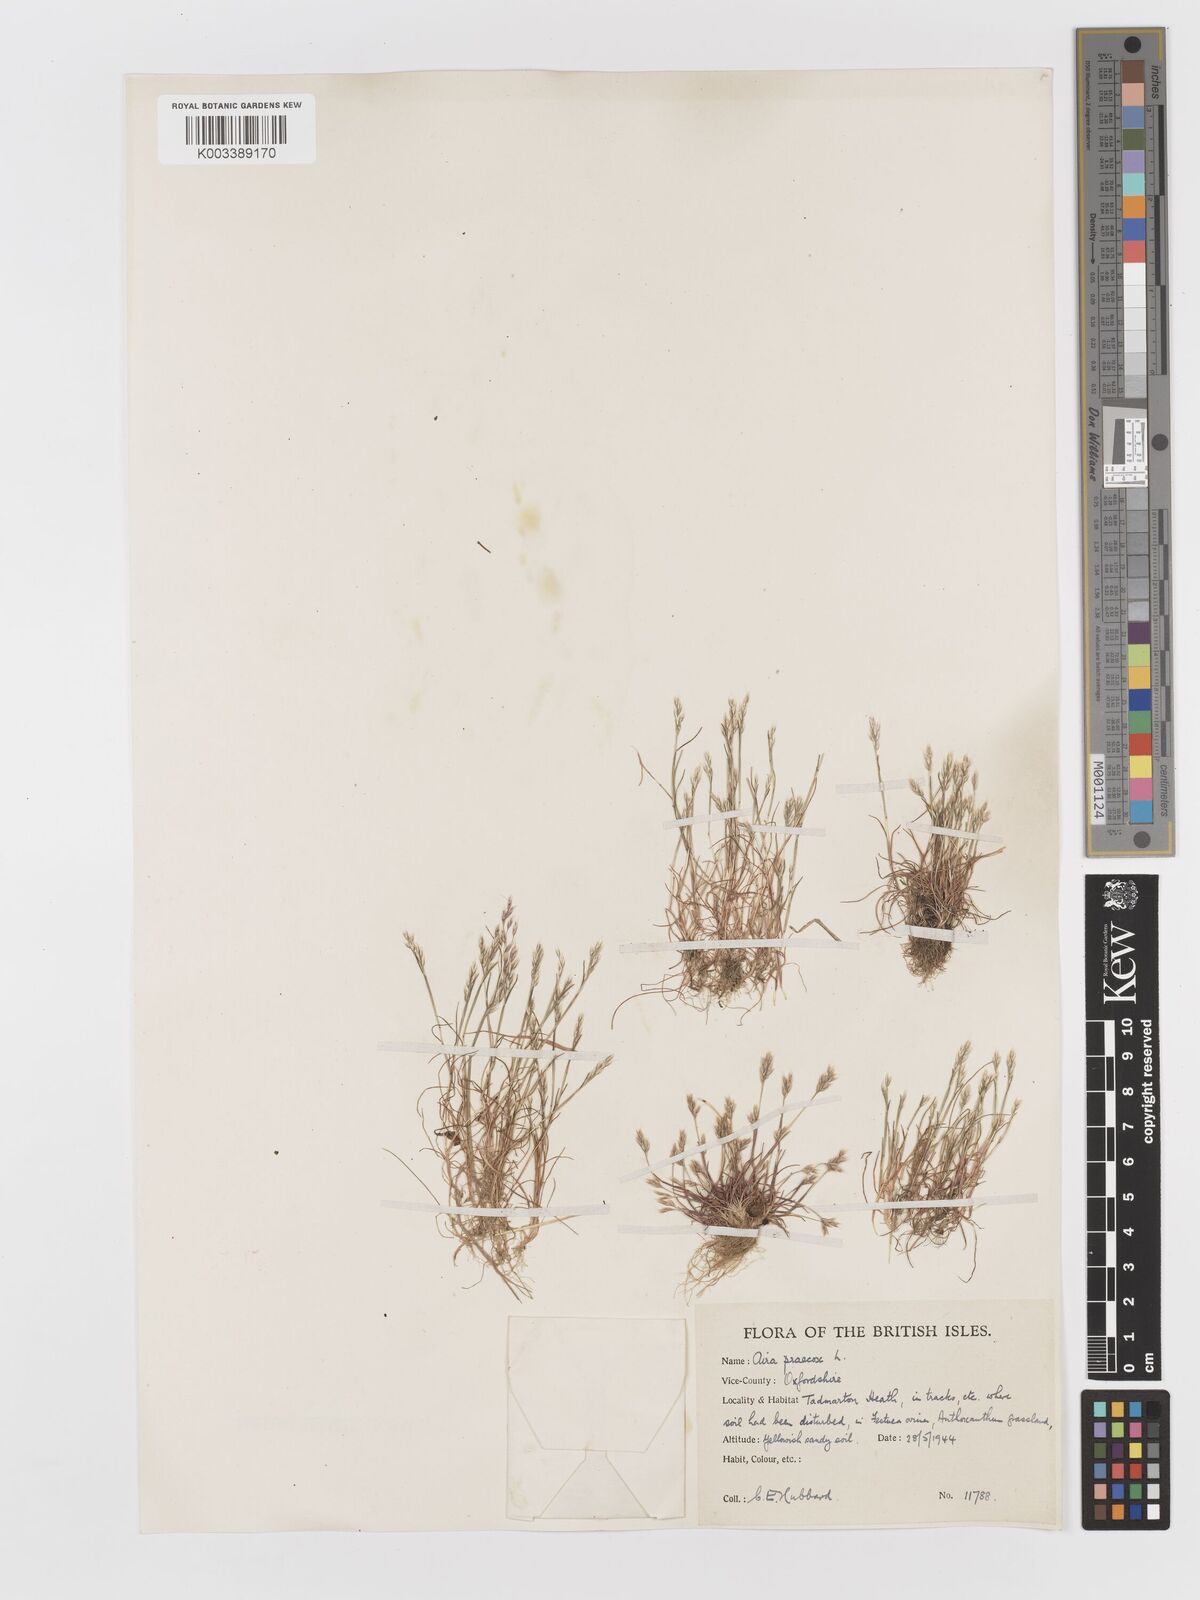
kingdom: Plantae
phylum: Tracheophyta
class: Liliopsida
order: Poales
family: Poaceae
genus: Aira
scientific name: Aira praecox
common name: Early hair-grass
